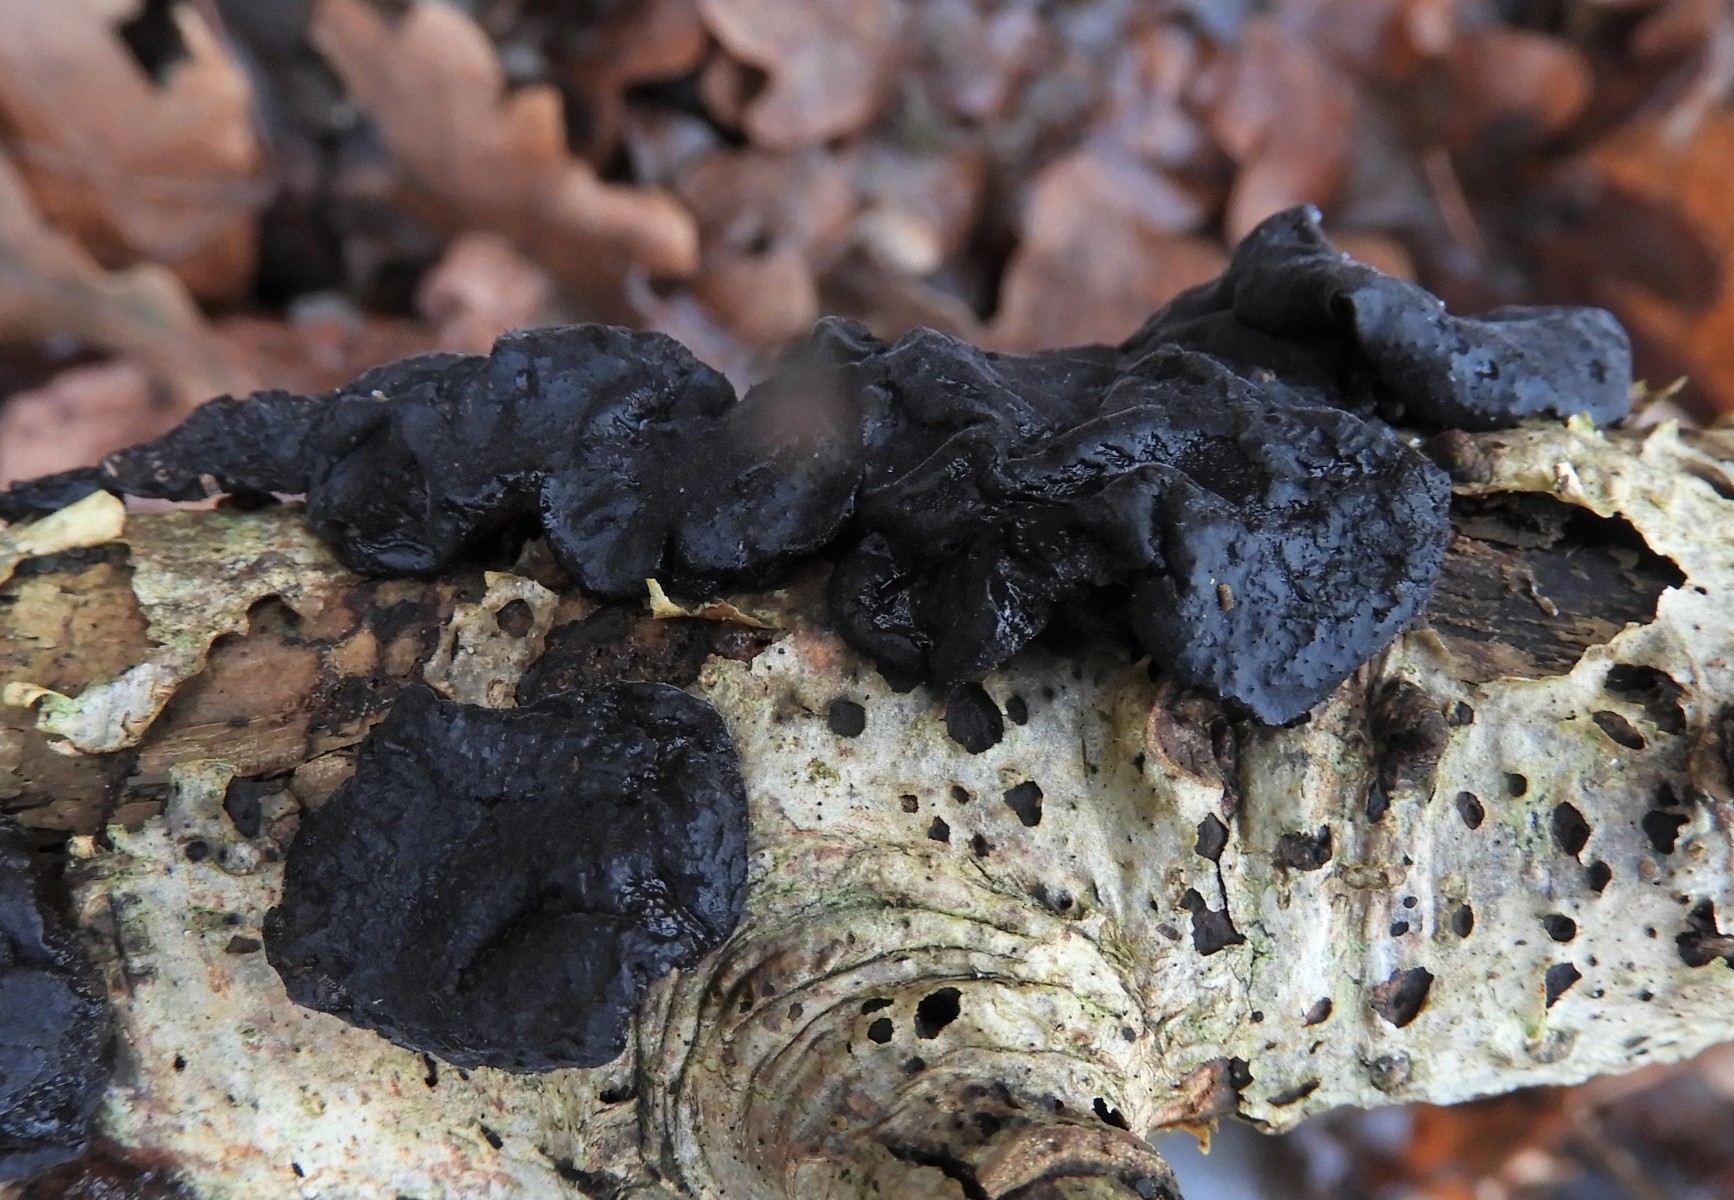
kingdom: Fungi
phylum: Basidiomycota
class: Agaricomycetes
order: Auriculariales
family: Auriculariaceae
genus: Exidia
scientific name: Exidia glandulosa
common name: ege-bævretop
